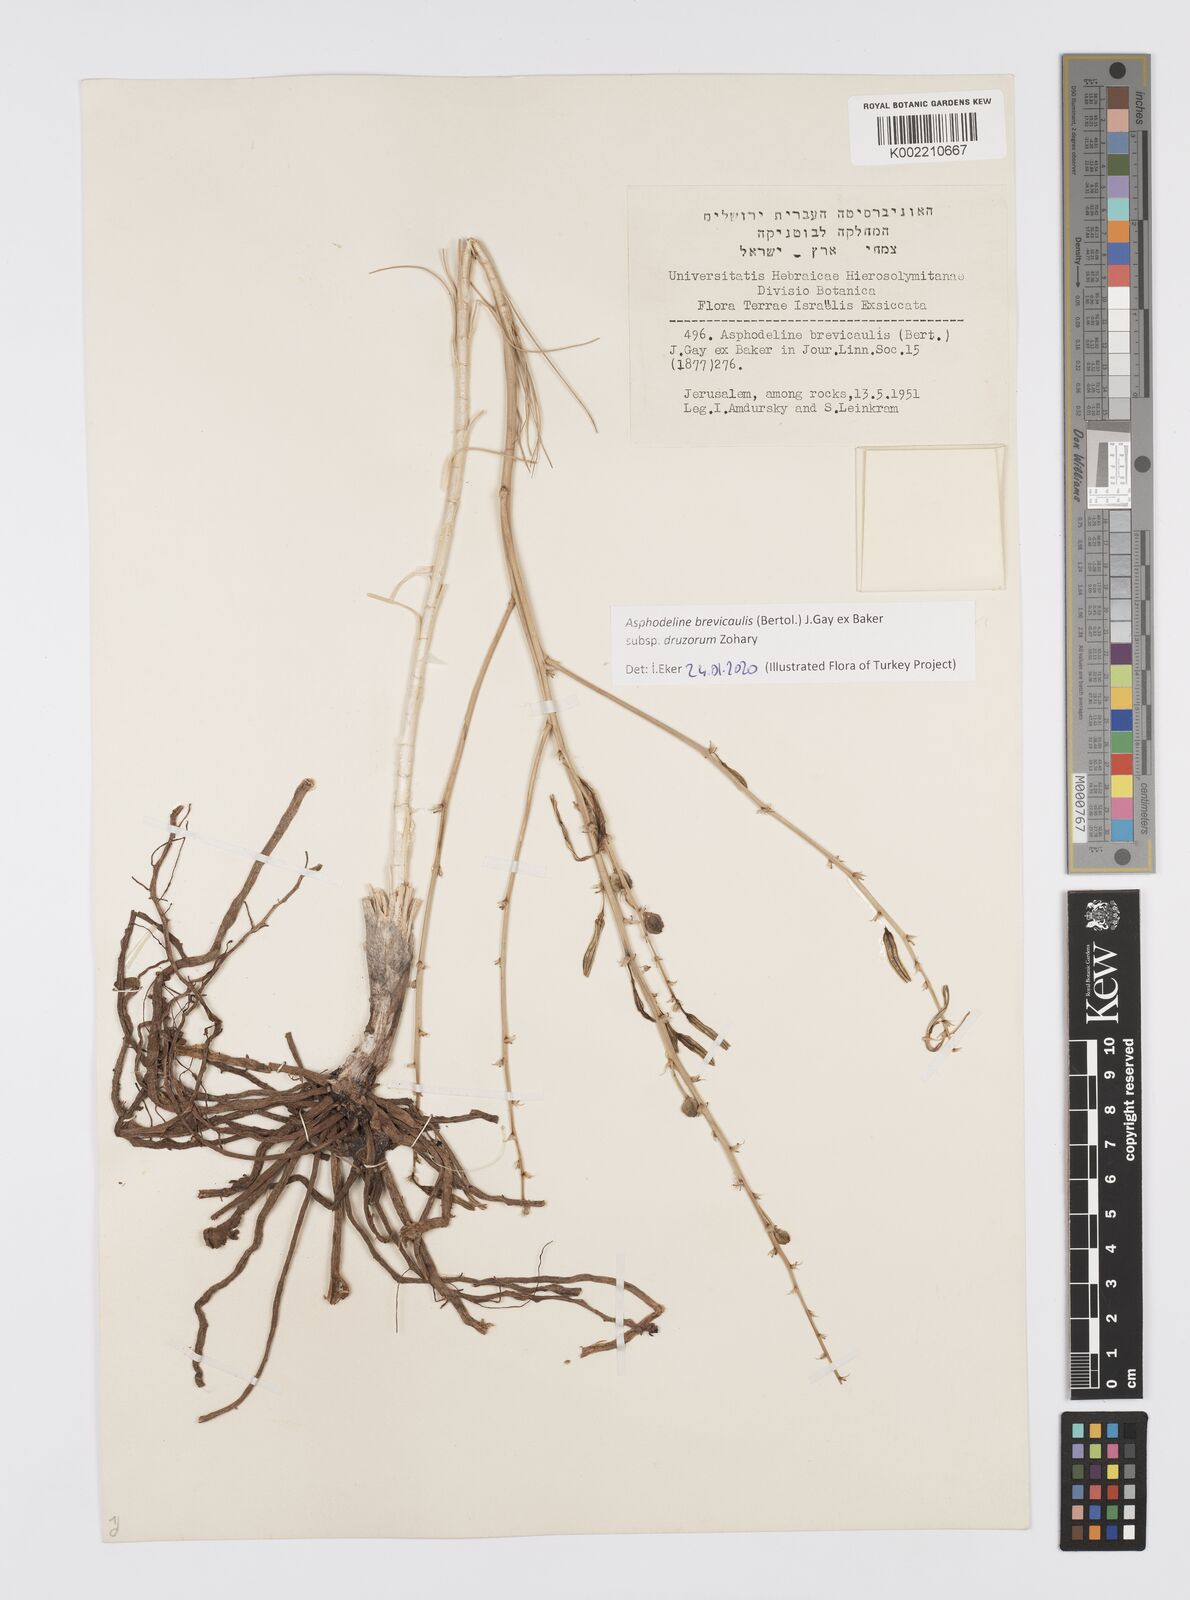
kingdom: Plantae
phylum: Tracheophyta
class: Liliopsida
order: Asparagales
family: Asphodelaceae
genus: Asphodeline
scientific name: Asphodeline brevicaulis
